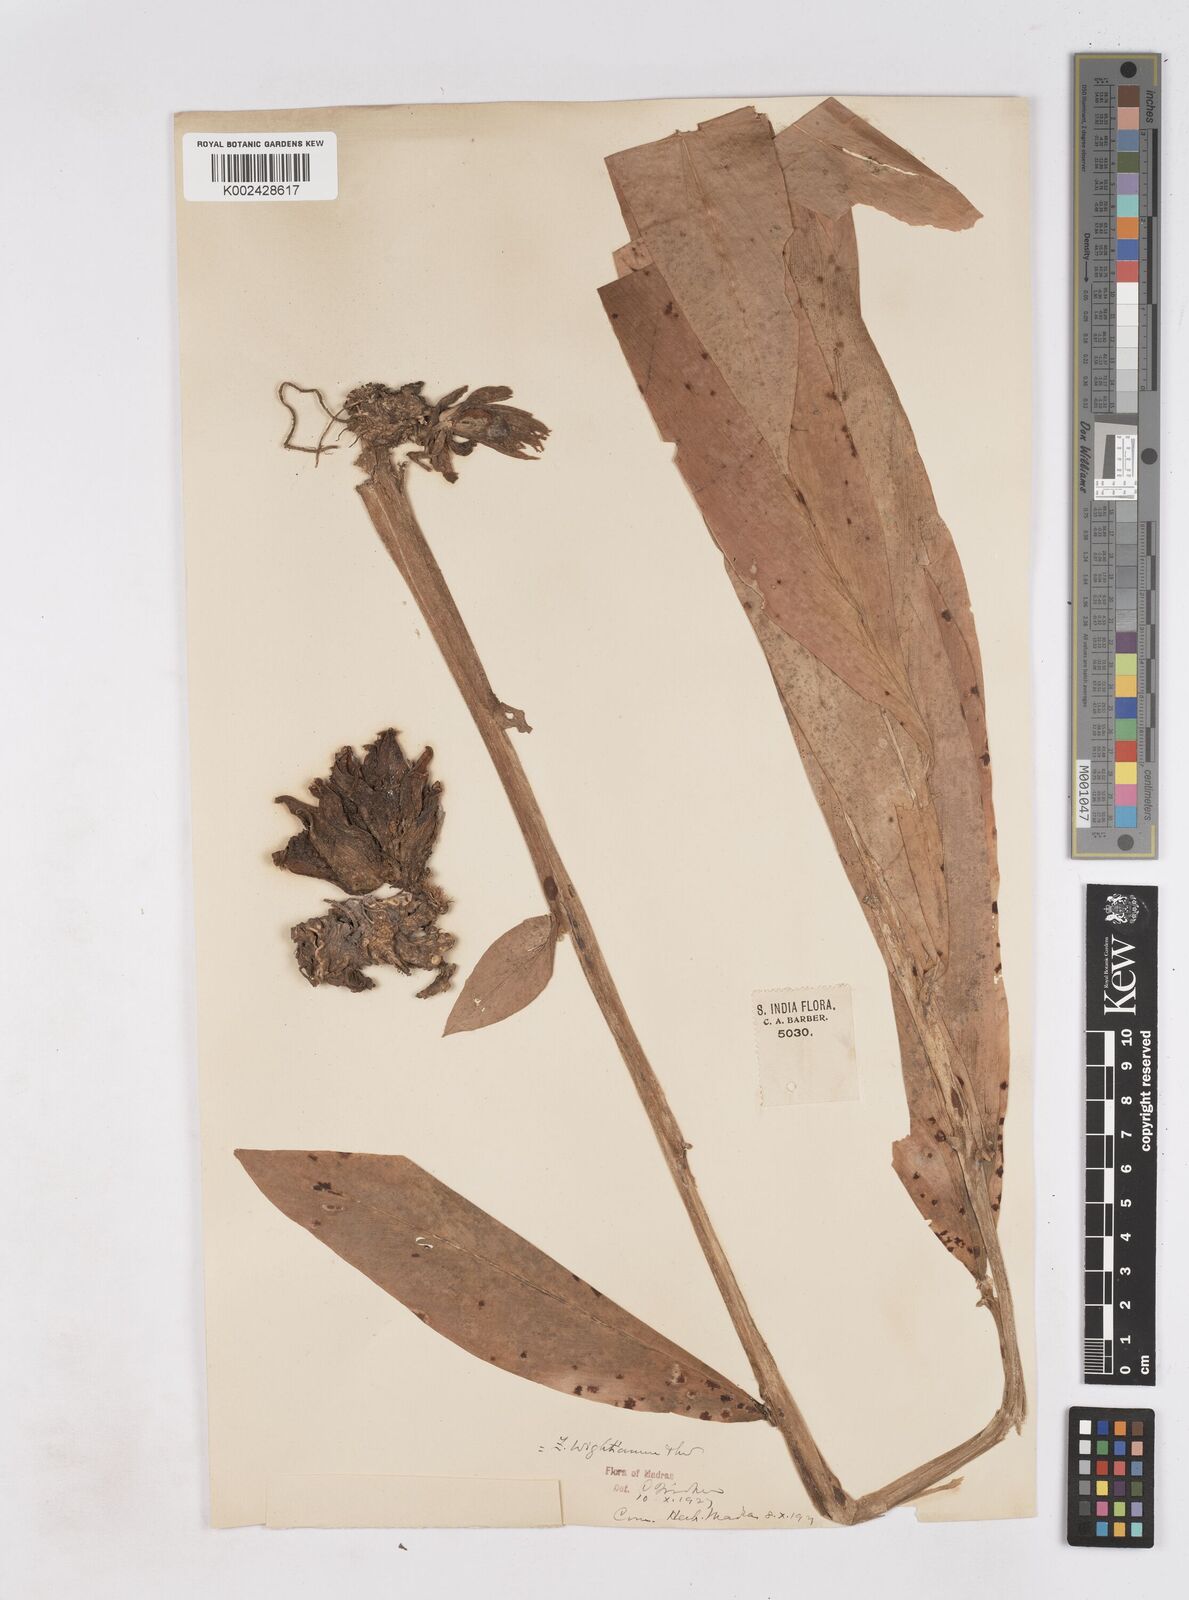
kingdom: Plantae
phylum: Tracheophyta
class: Liliopsida
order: Zingiberales
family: Zingiberaceae
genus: Zingiber
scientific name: Zingiber wightianum
